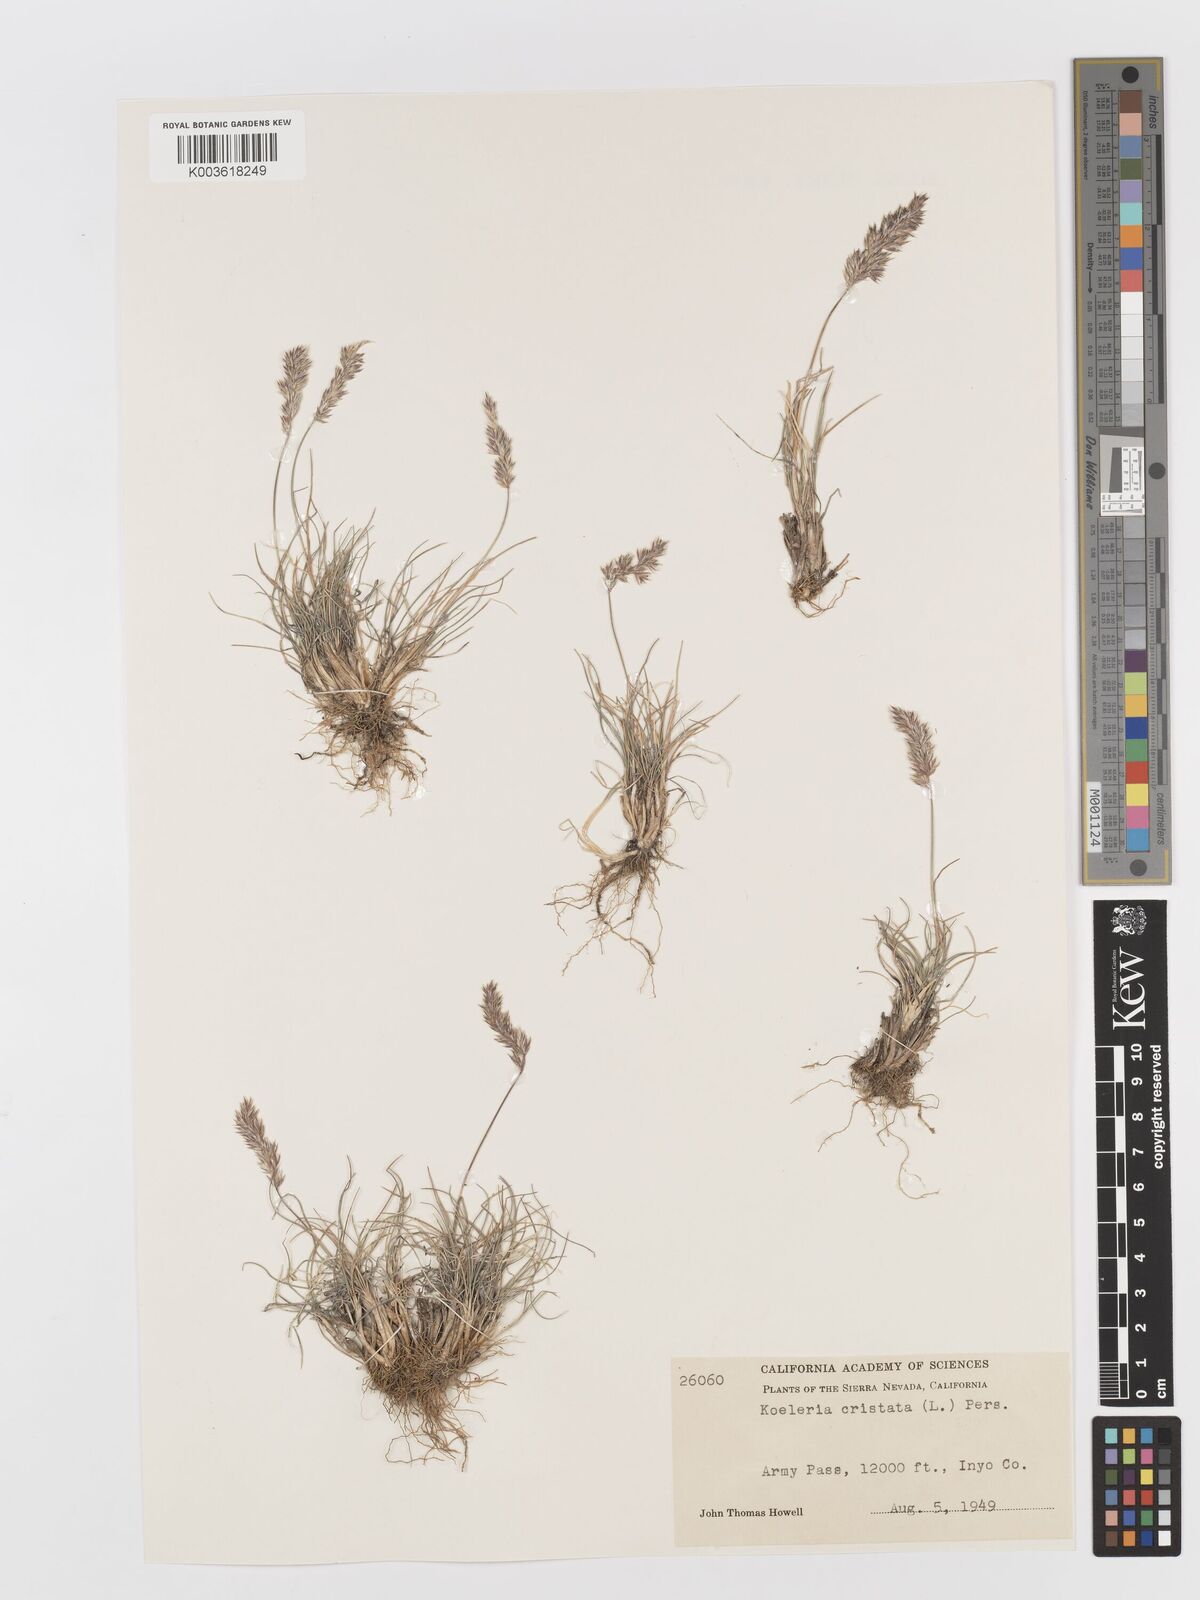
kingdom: Plantae
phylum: Tracheophyta
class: Liliopsida
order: Poales
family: Poaceae
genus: Koeleria
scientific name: Koeleria macrantha
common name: Crested hair-grass
